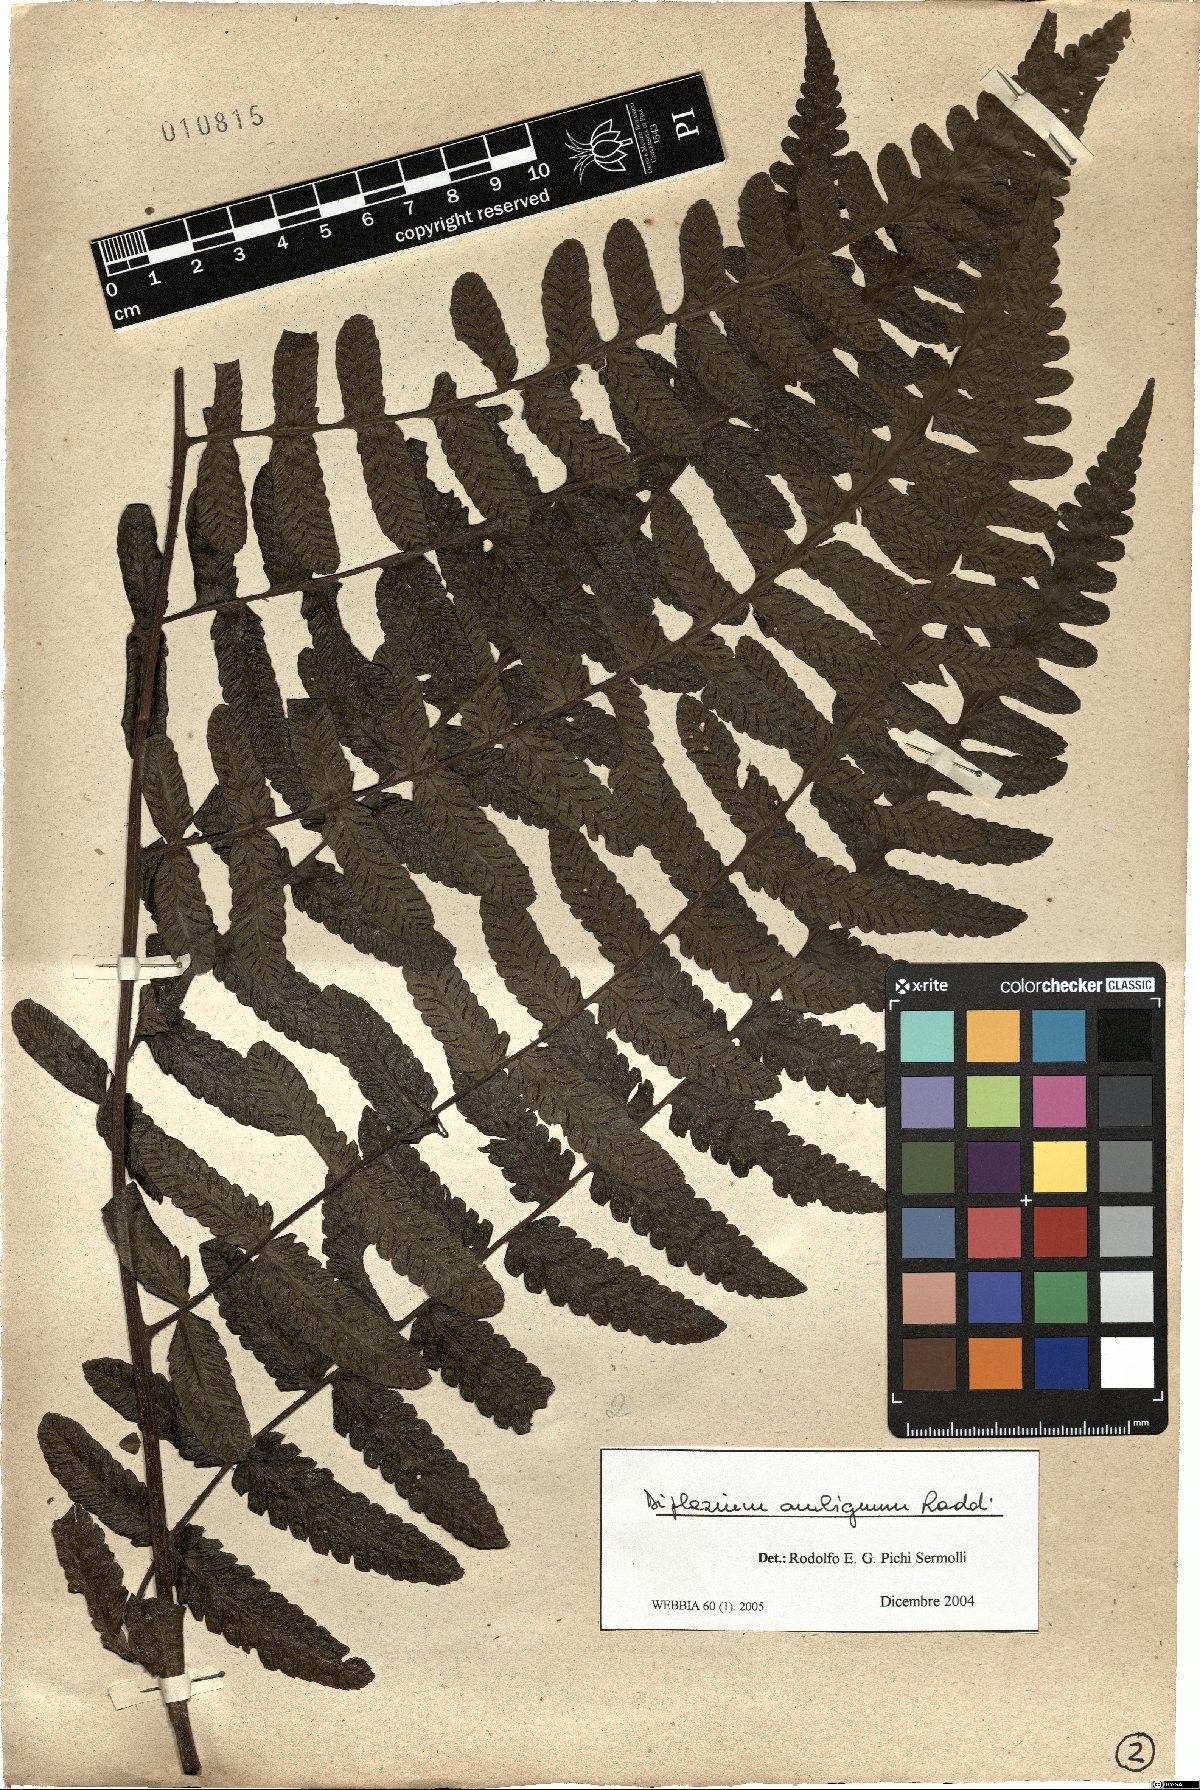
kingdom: Plantae
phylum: Tracheophyta
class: Polypodiopsida
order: Polypodiales
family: Athyriaceae
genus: Diplazium
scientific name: Diplazium ambiguum
